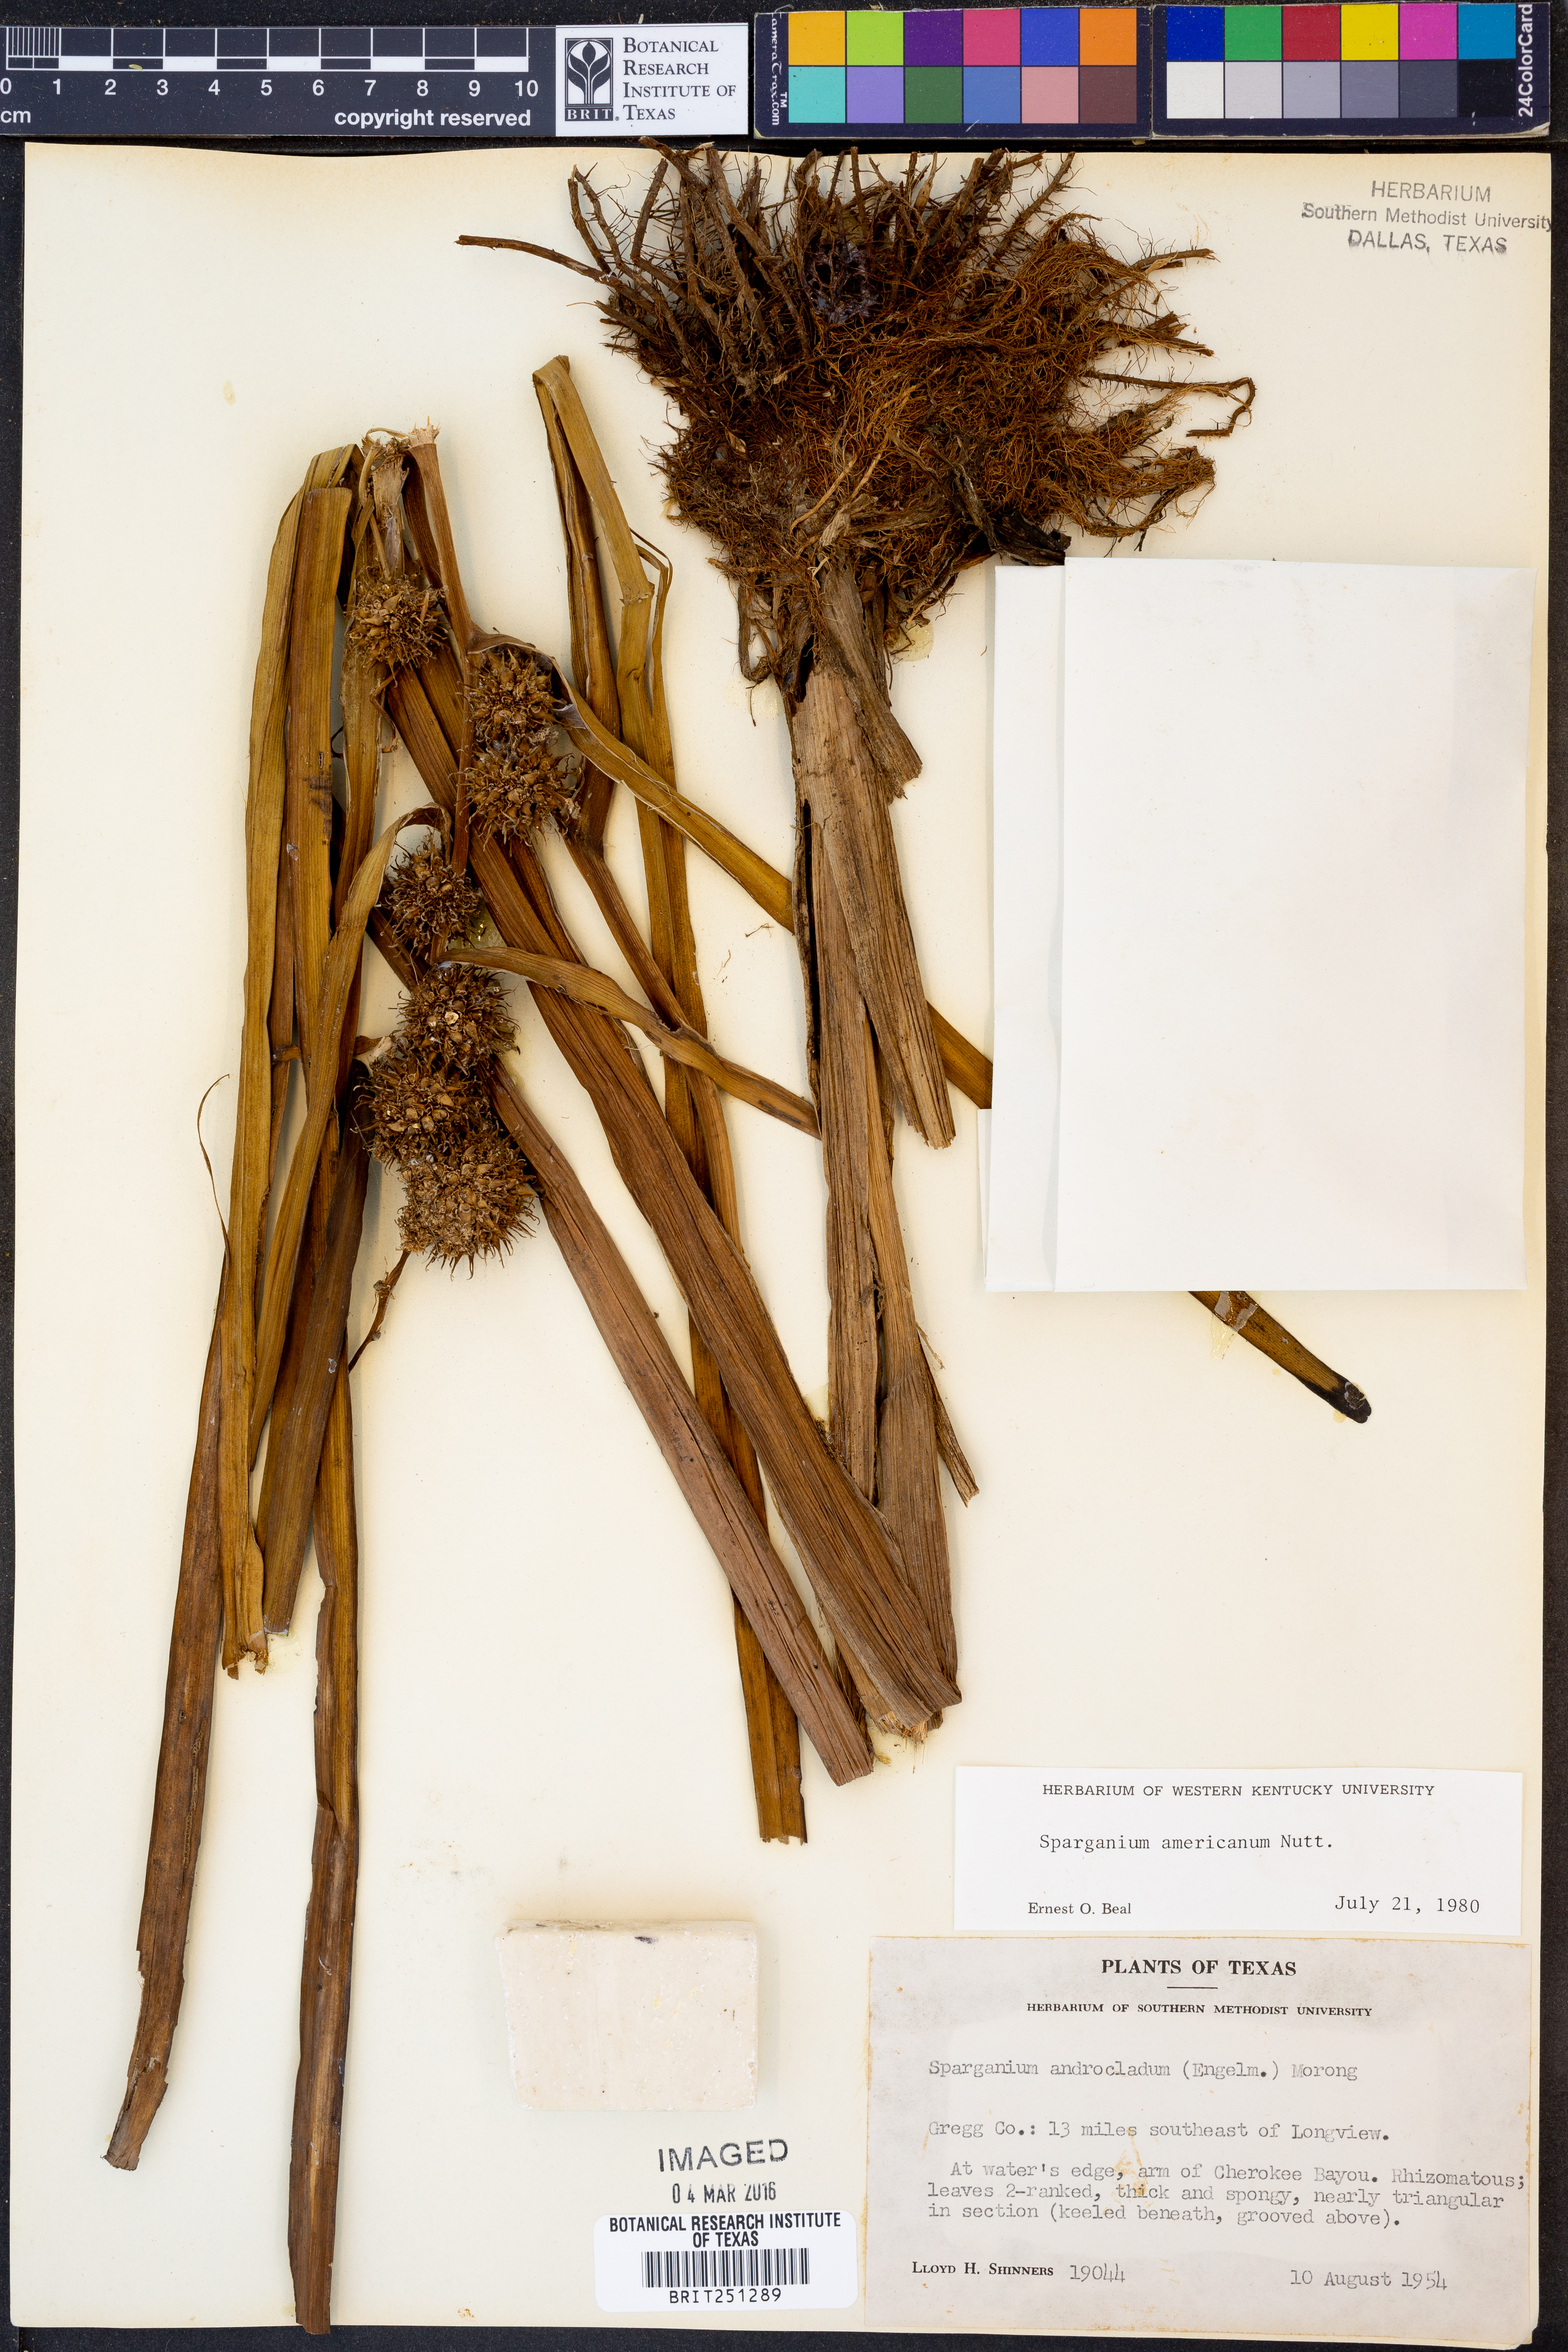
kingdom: Plantae
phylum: Tracheophyta
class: Liliopsida
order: Poales
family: Typhaceae
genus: Sparganium
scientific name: Sparganium americanum
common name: American burreed
